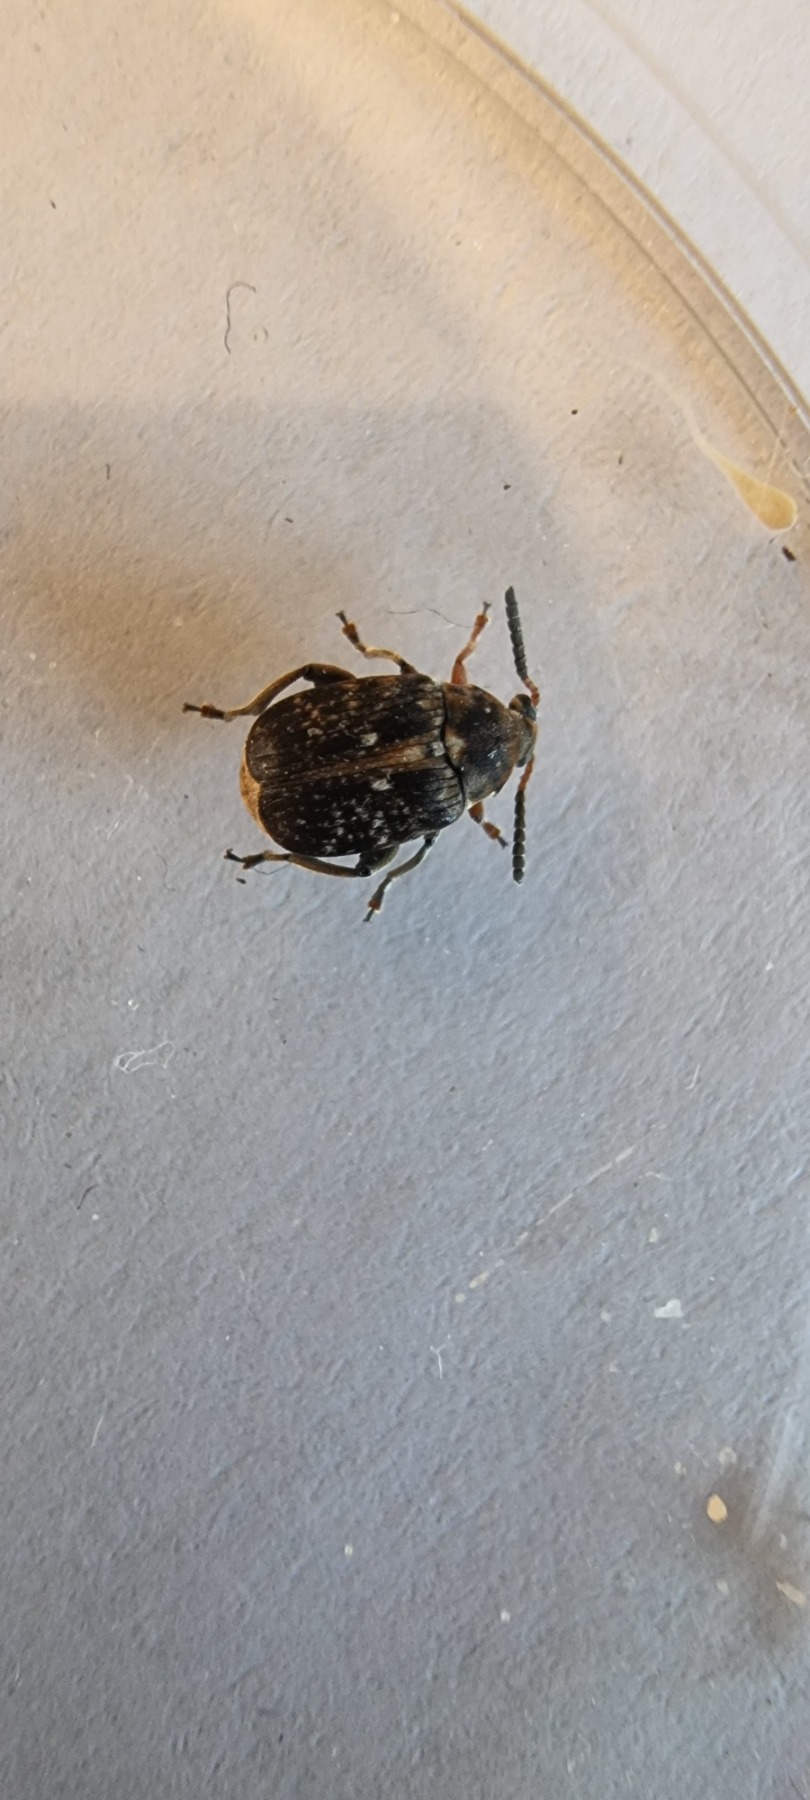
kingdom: Animalia
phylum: Arthropoda
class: Insecta
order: Coleoptera
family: Chrysomelidae
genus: Bruchus
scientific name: Bruchus rufimanus
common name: Hestebønnebille
